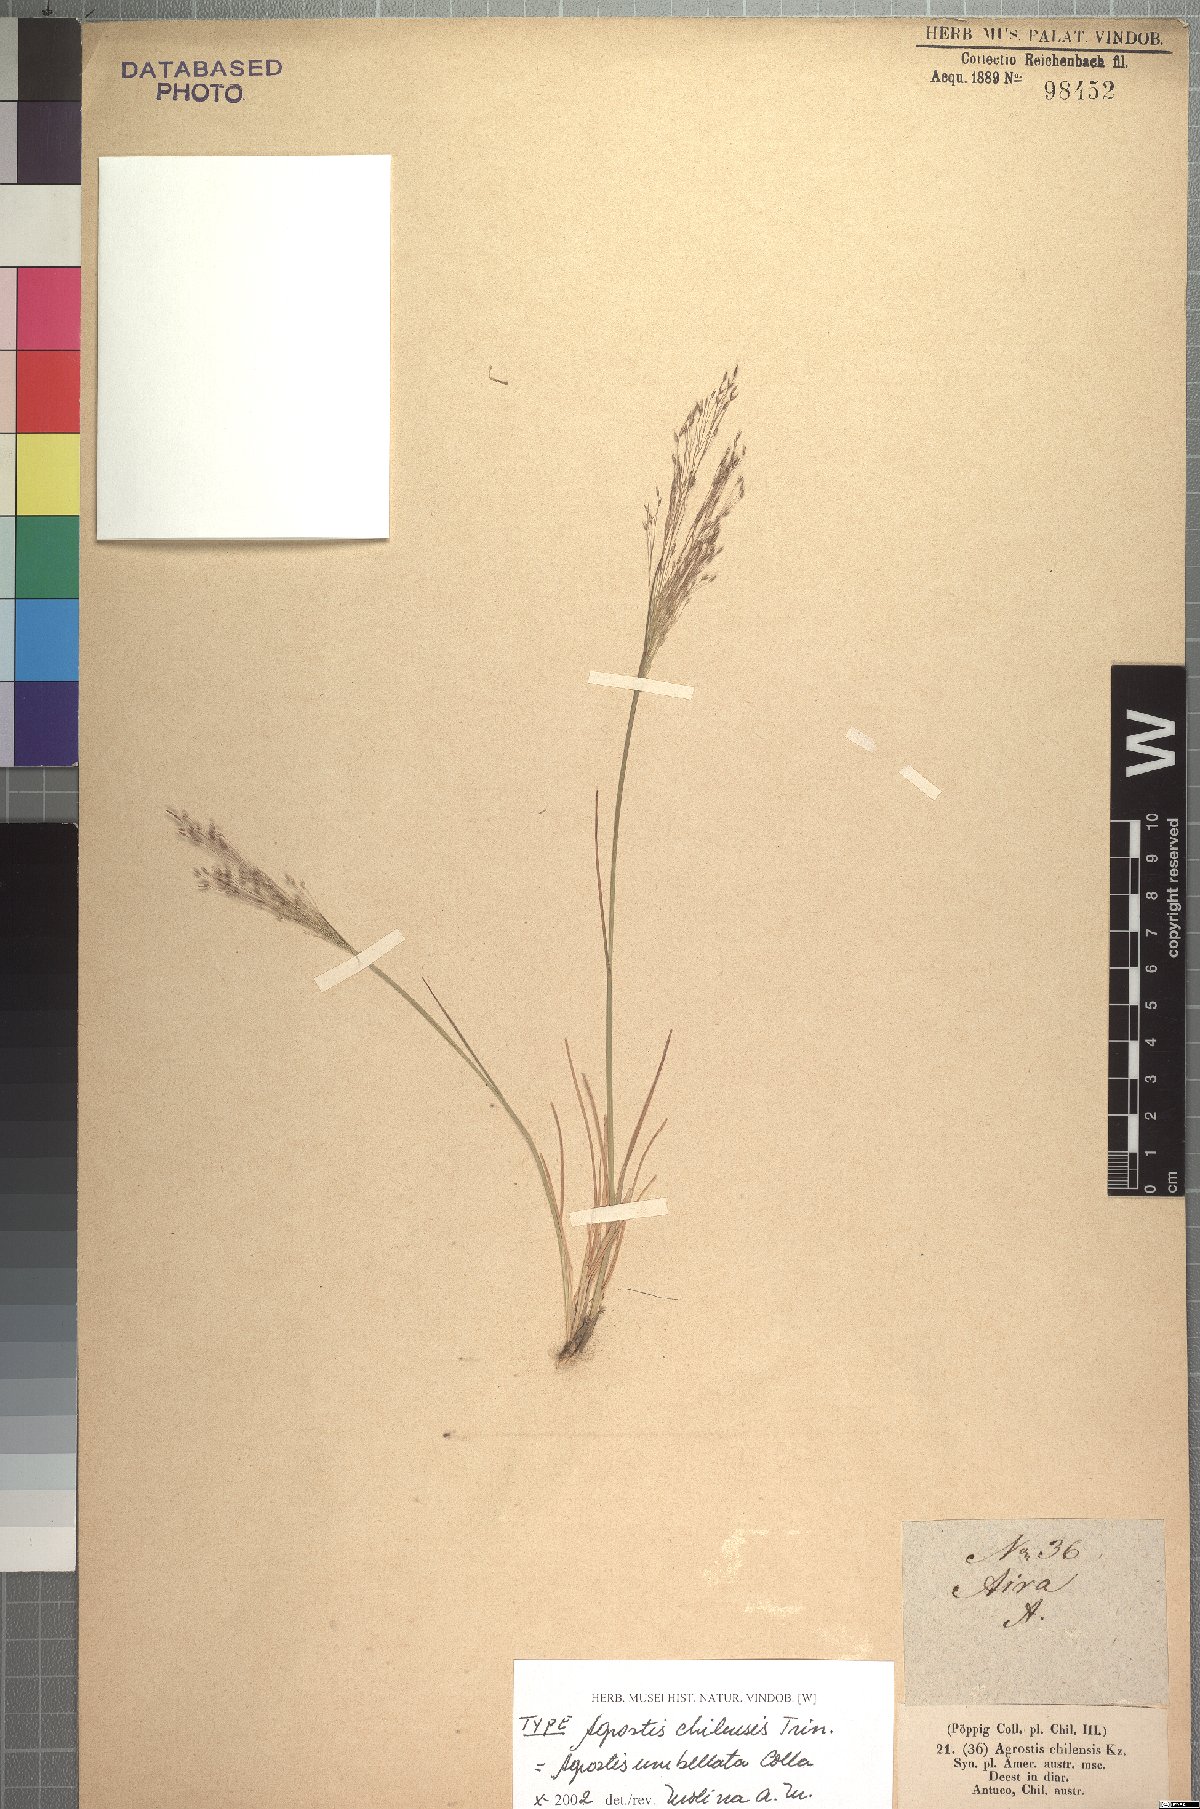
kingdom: Plantae
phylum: Tracheophyta
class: Liliopsida
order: Poales
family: Poaceae
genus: Agrostis
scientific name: Agrostis umbellata
